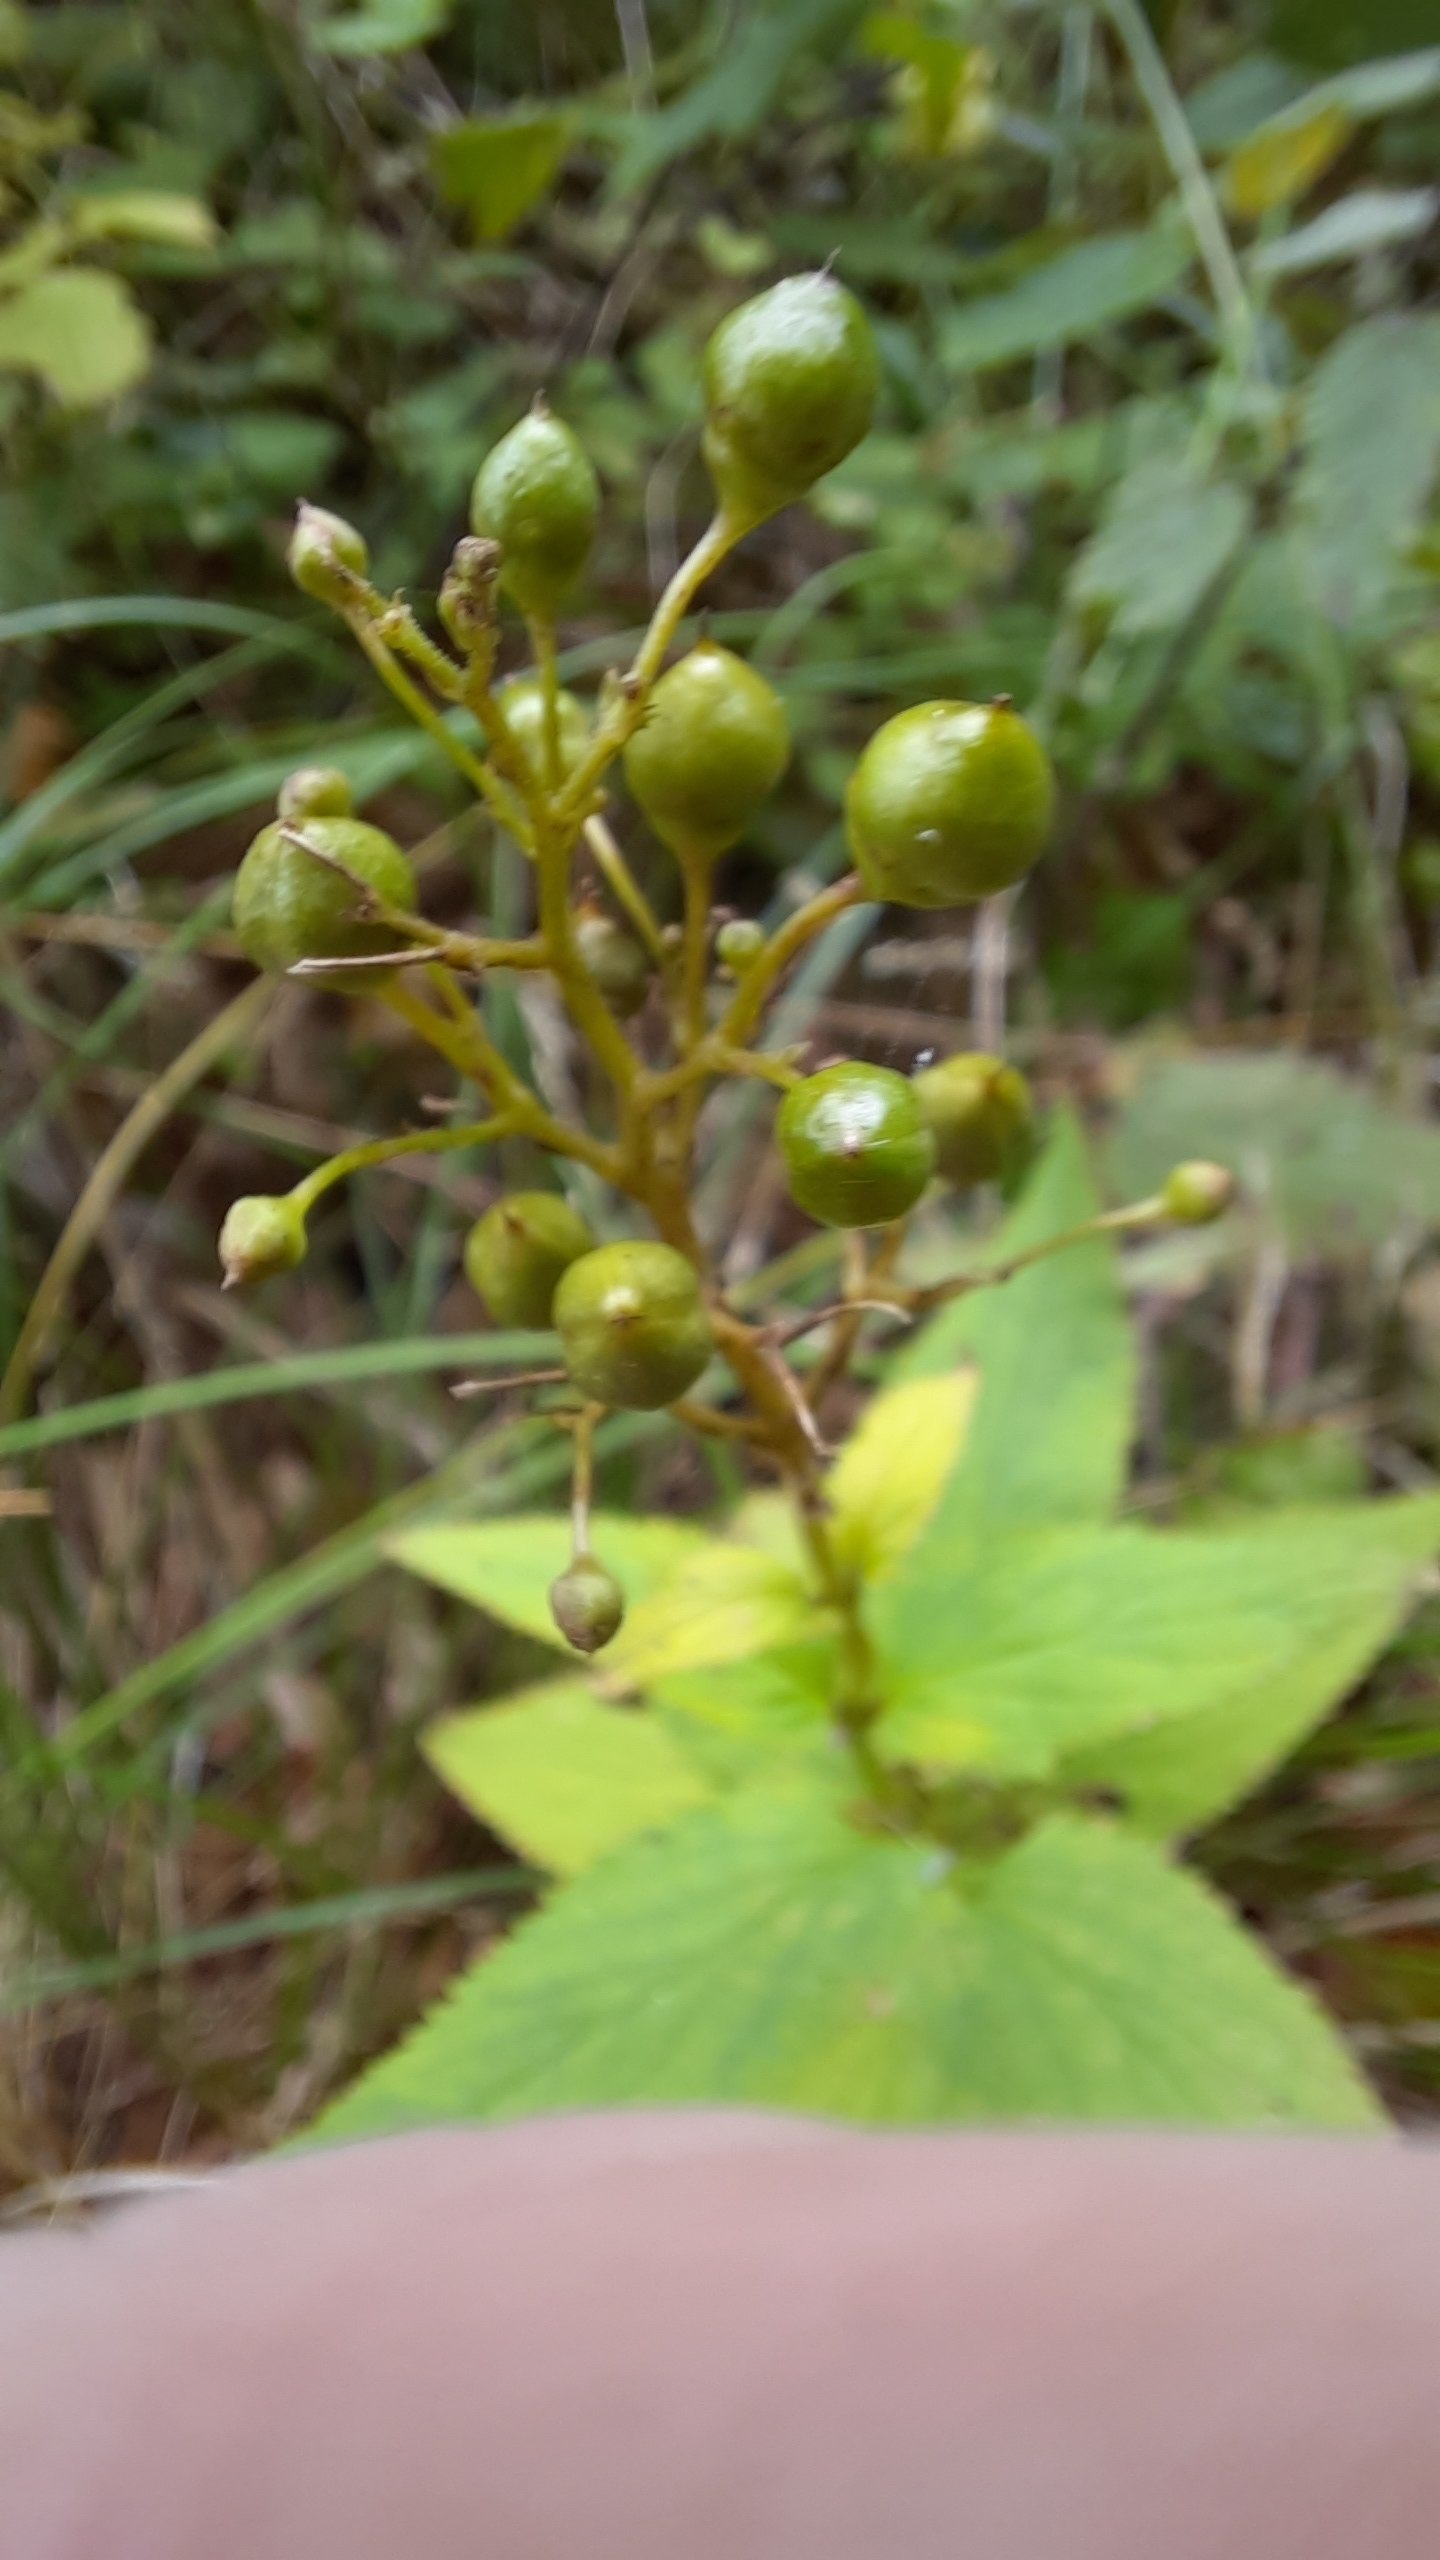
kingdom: Plantae
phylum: Tracheophyta
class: Magnoliopsida
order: Lamiales
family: Scrophulariaceae
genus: Scrophularia
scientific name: Scrophularia nodosa
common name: Knoldet brunrod
